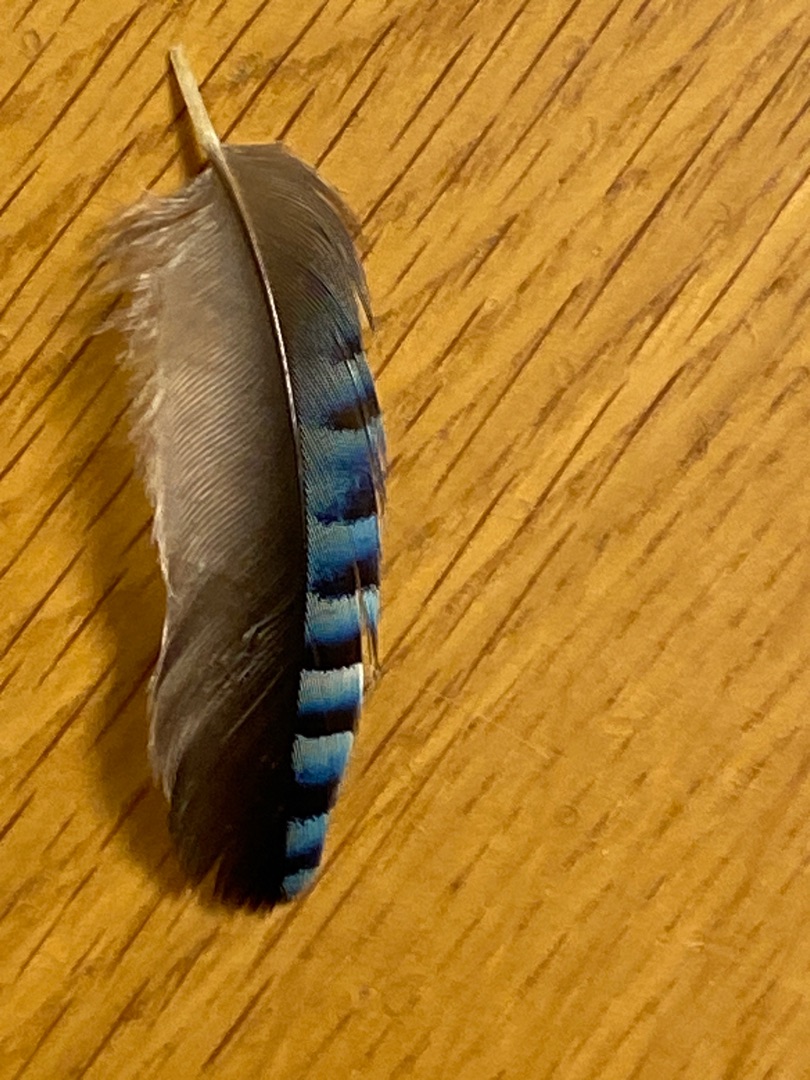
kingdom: Animalia
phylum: Chordata
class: Aves
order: Passeriformes
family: Corvidae
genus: Garrulus
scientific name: Garrulus glandarius
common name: Skovskade
